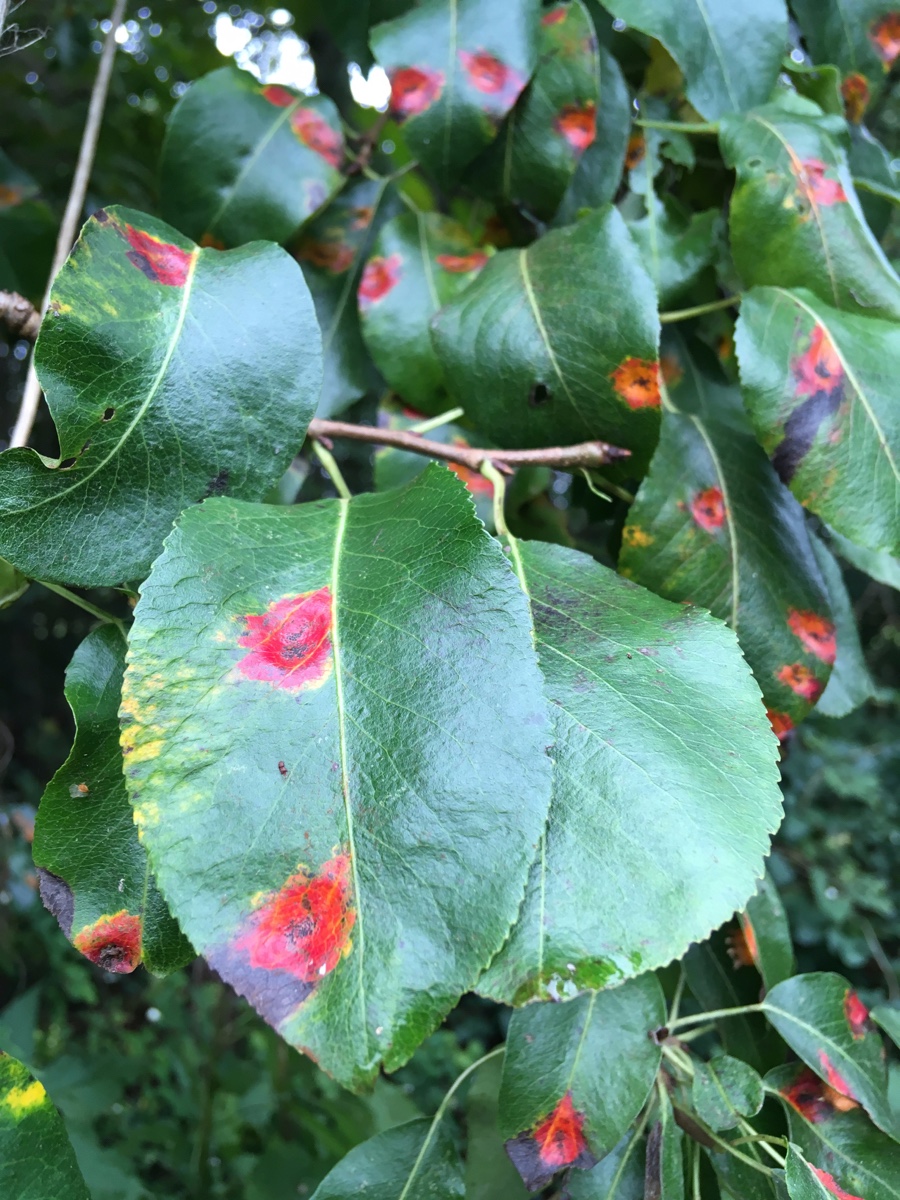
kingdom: Fungi
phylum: Basidiomycota
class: Pucciniomycetes
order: Pucciniales
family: Gymnosporangiaceae
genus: Gymnosporangium
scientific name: Gymnosporangium sabinae
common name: pæregitter-bævrerust
